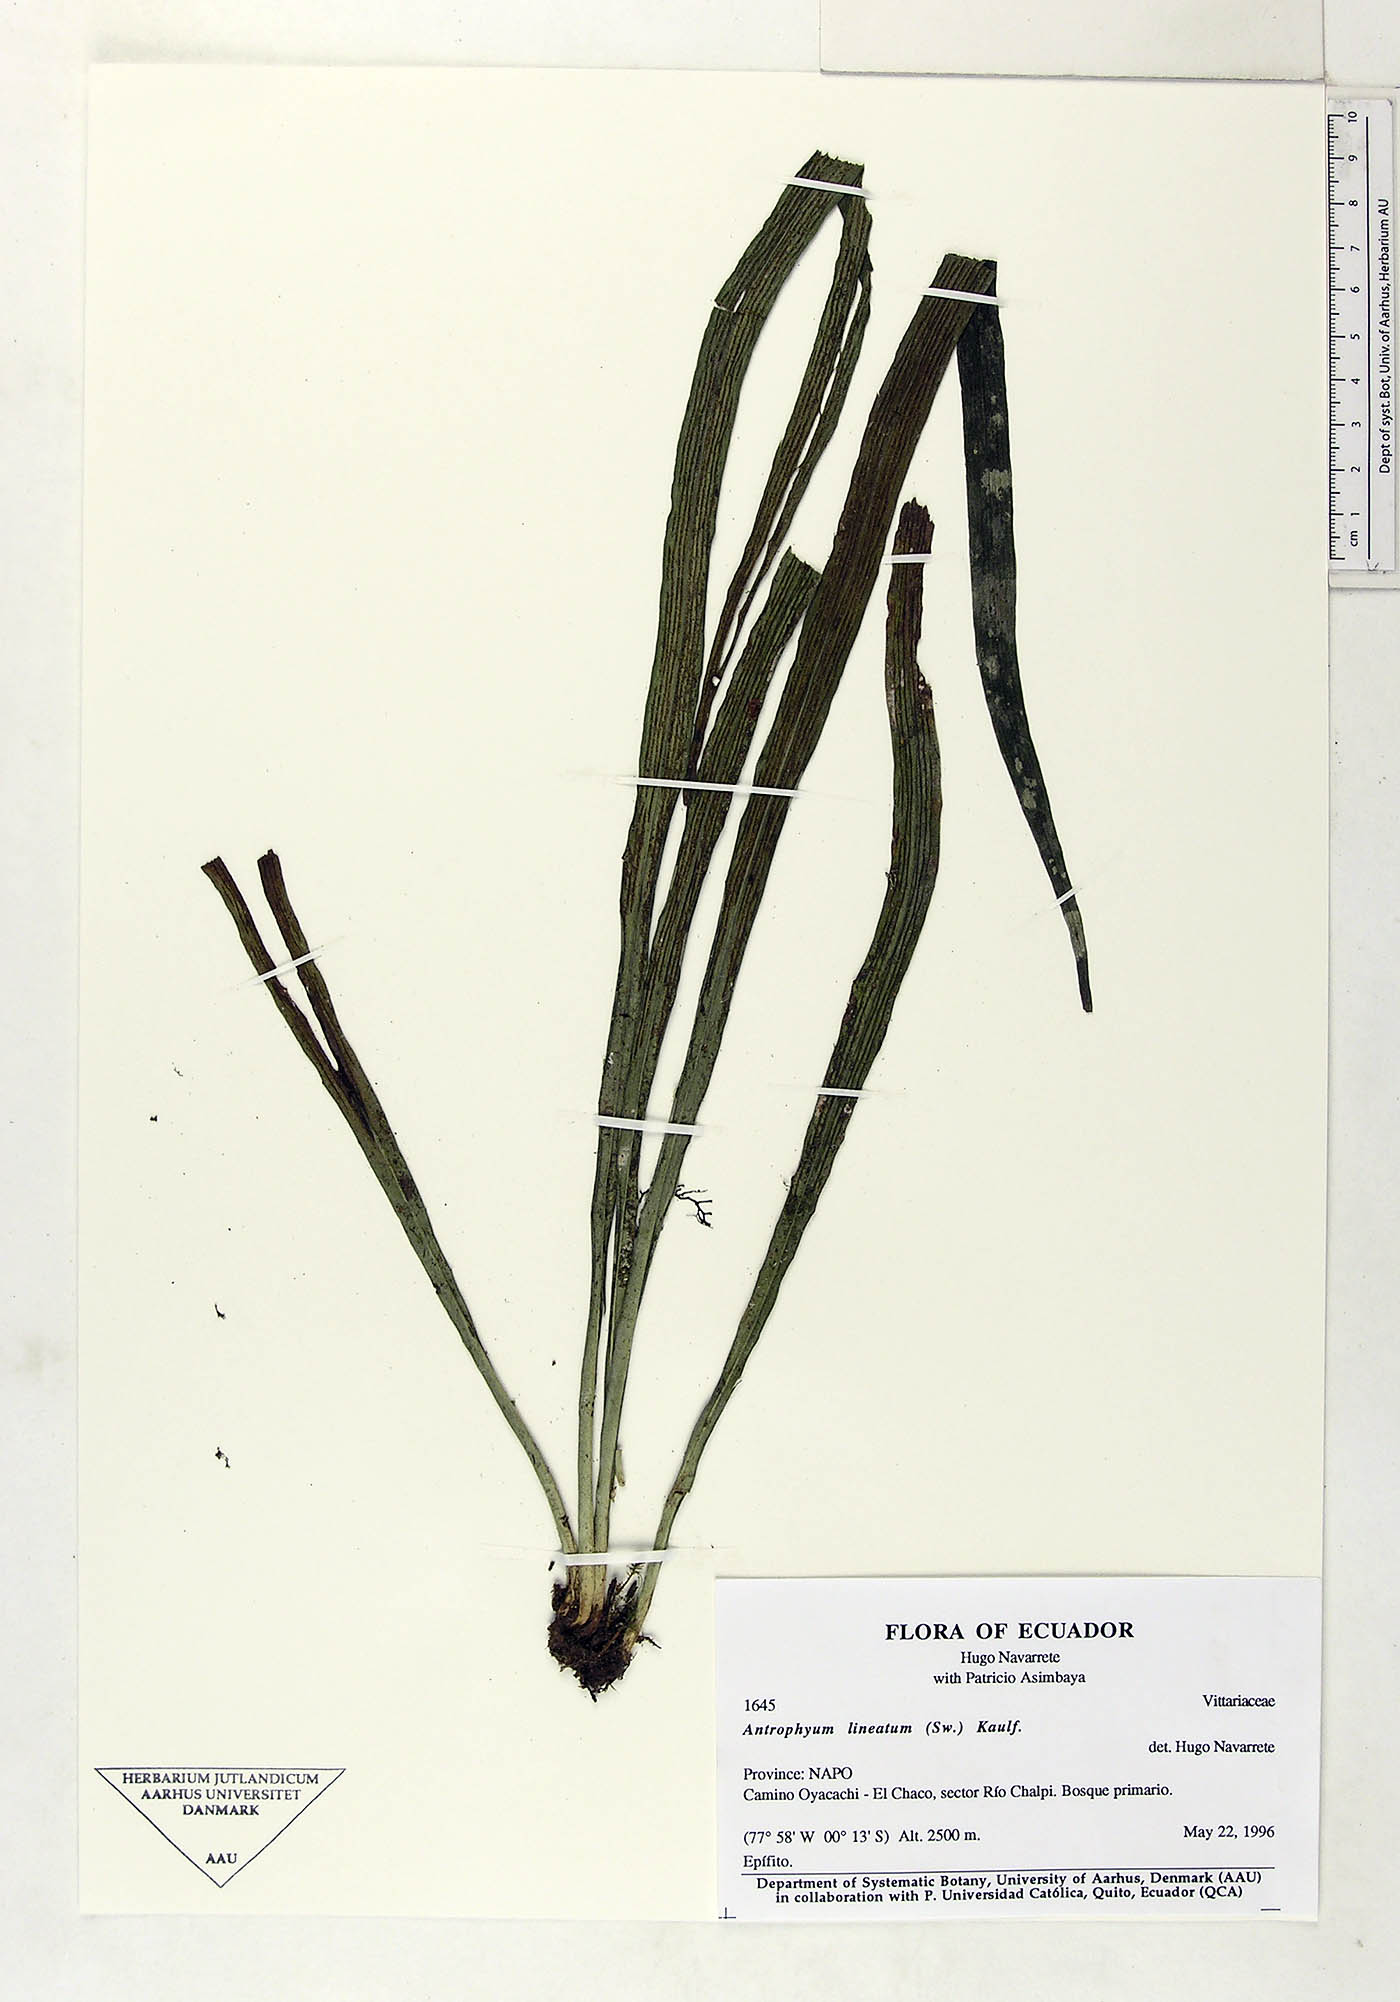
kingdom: Plantae
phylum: Tracheophyta
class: Polypodiopsida
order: Polypodiales
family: Pteridaceae
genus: Polytaenium
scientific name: Polytaenium lineatum
